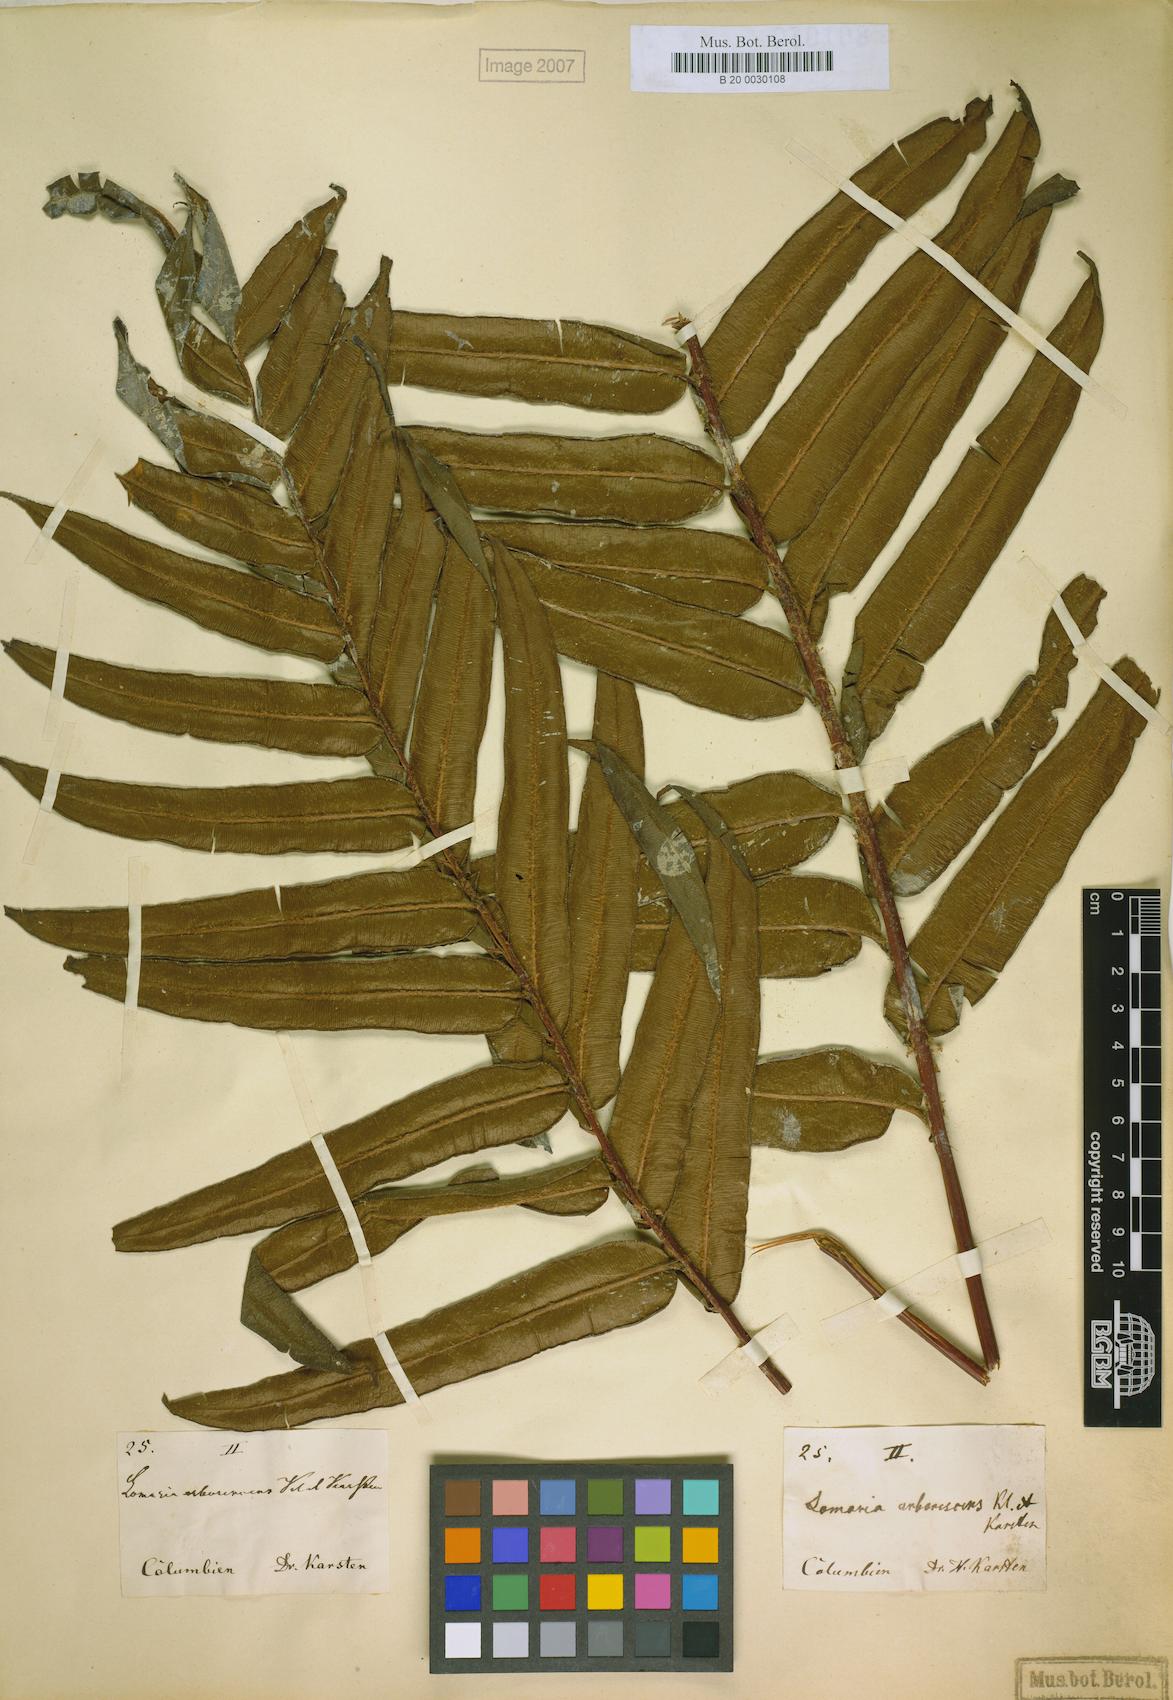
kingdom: Plantae
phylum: Tracheophyta
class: Polypodiopsida
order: Polypodiales
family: Blechnaceae
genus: Parablechnum
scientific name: Parablechnum cordatum
